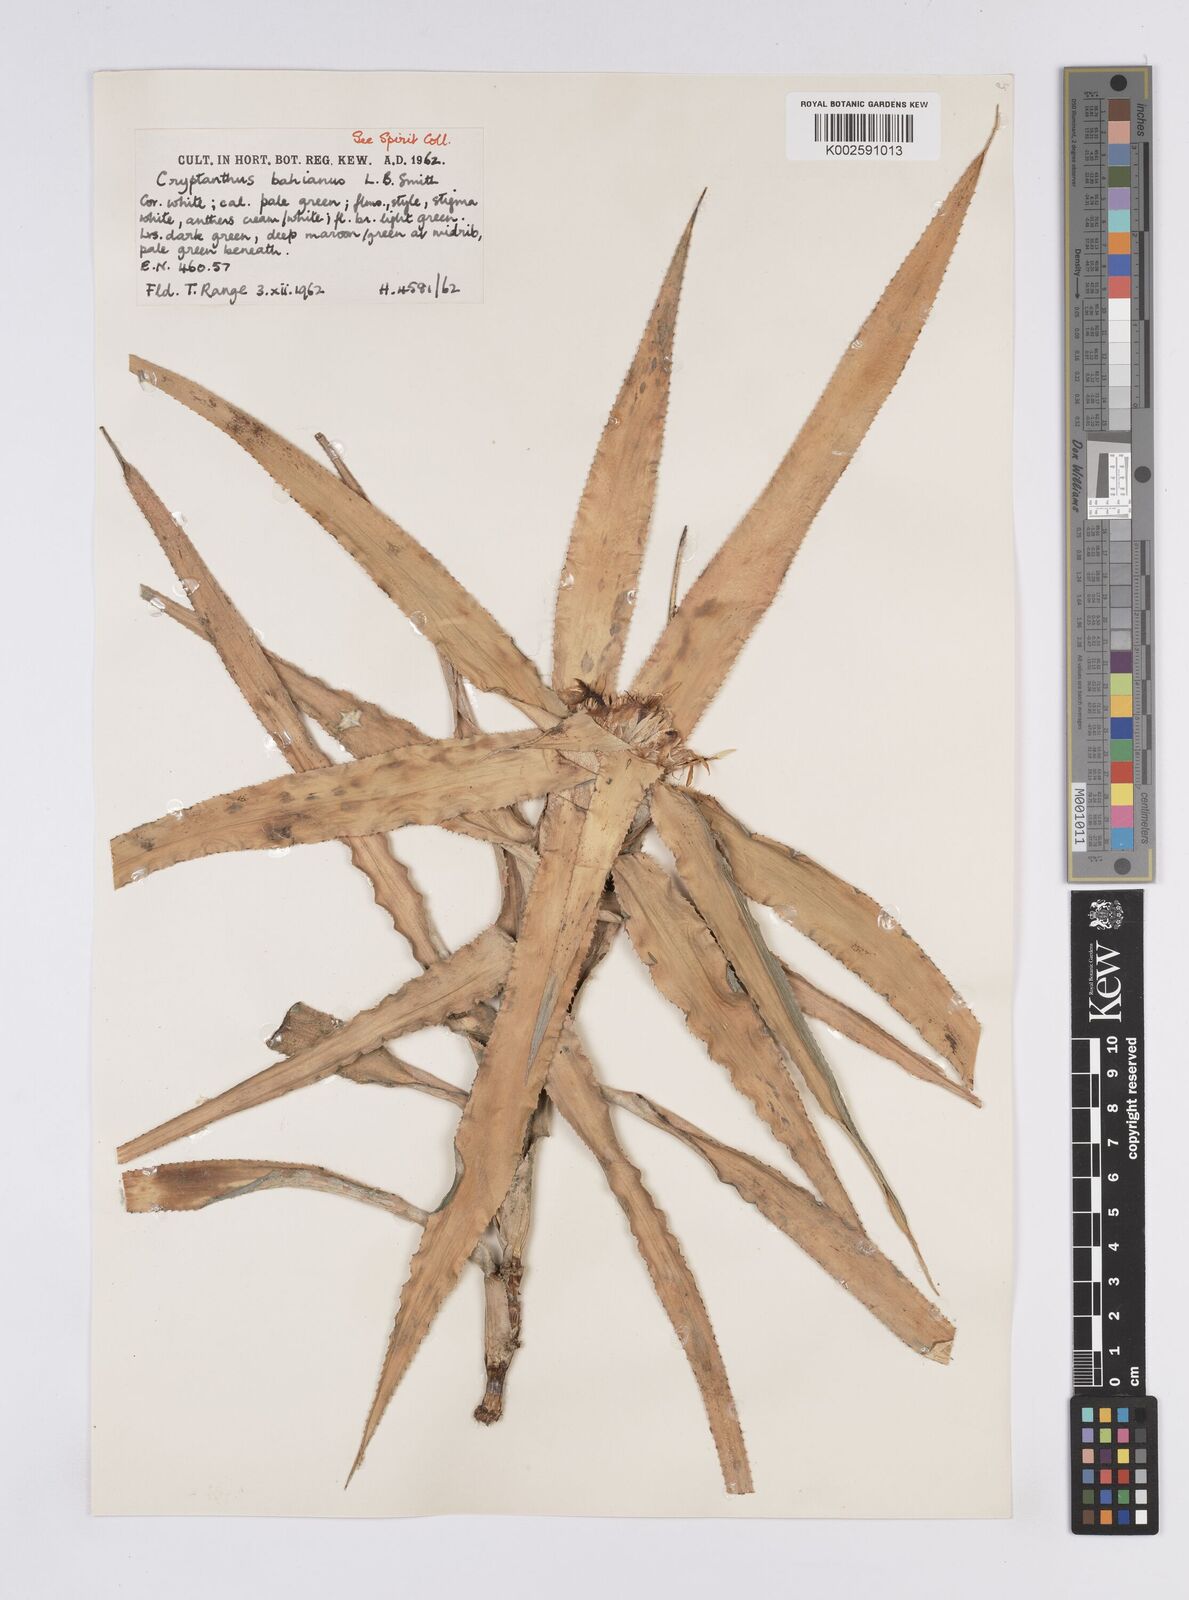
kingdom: Plantae
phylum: Tracheophyta
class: Liliopsida
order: Poales
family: Bromeliaceae
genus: Cryptanthus
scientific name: Cryptanthus bahianus
